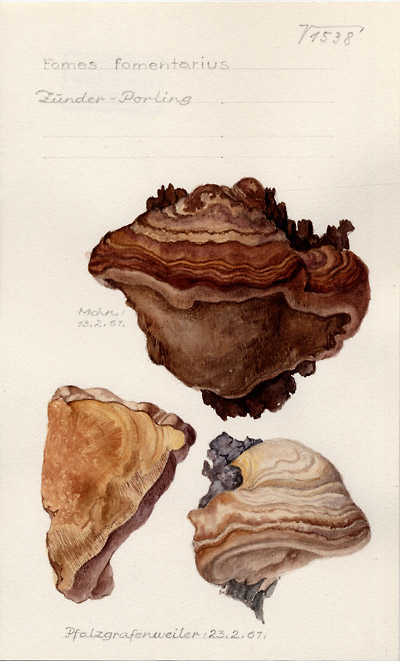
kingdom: Fungi
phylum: Basidiomycota
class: Agaricomycetes
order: Polyporales
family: Polyporaceae
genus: Fomes
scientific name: Fomes fomentarius
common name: Hoof fungus
